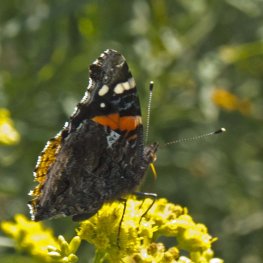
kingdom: Animalia
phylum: Arthropoda
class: Insecta
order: Lepidoptera
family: Nymphalidae
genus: Vanessa
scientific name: Vanessa atalanta
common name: Red Admiral
